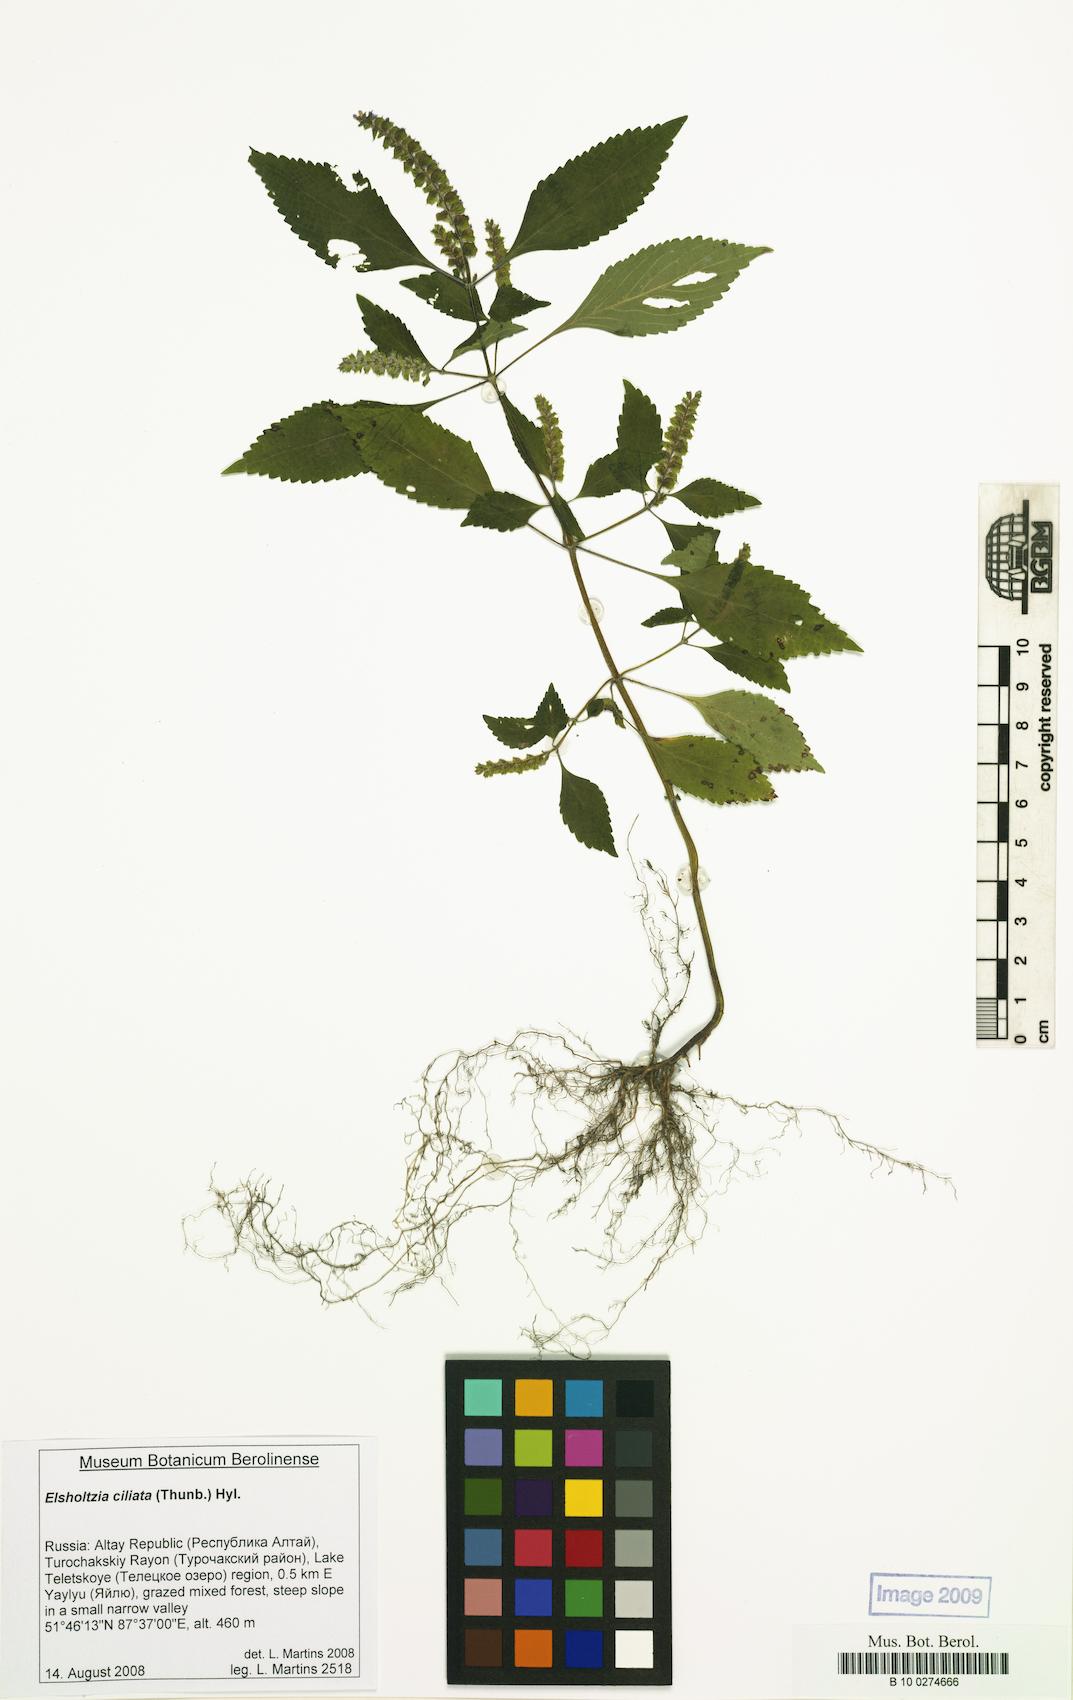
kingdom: Plantae
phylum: Tracheophyta
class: Magnoliopsida
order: Lamiales
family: Lamiaceae
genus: Elsholtzia
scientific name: Elsholtzia ciliata
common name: Ciliate elsholtzia
